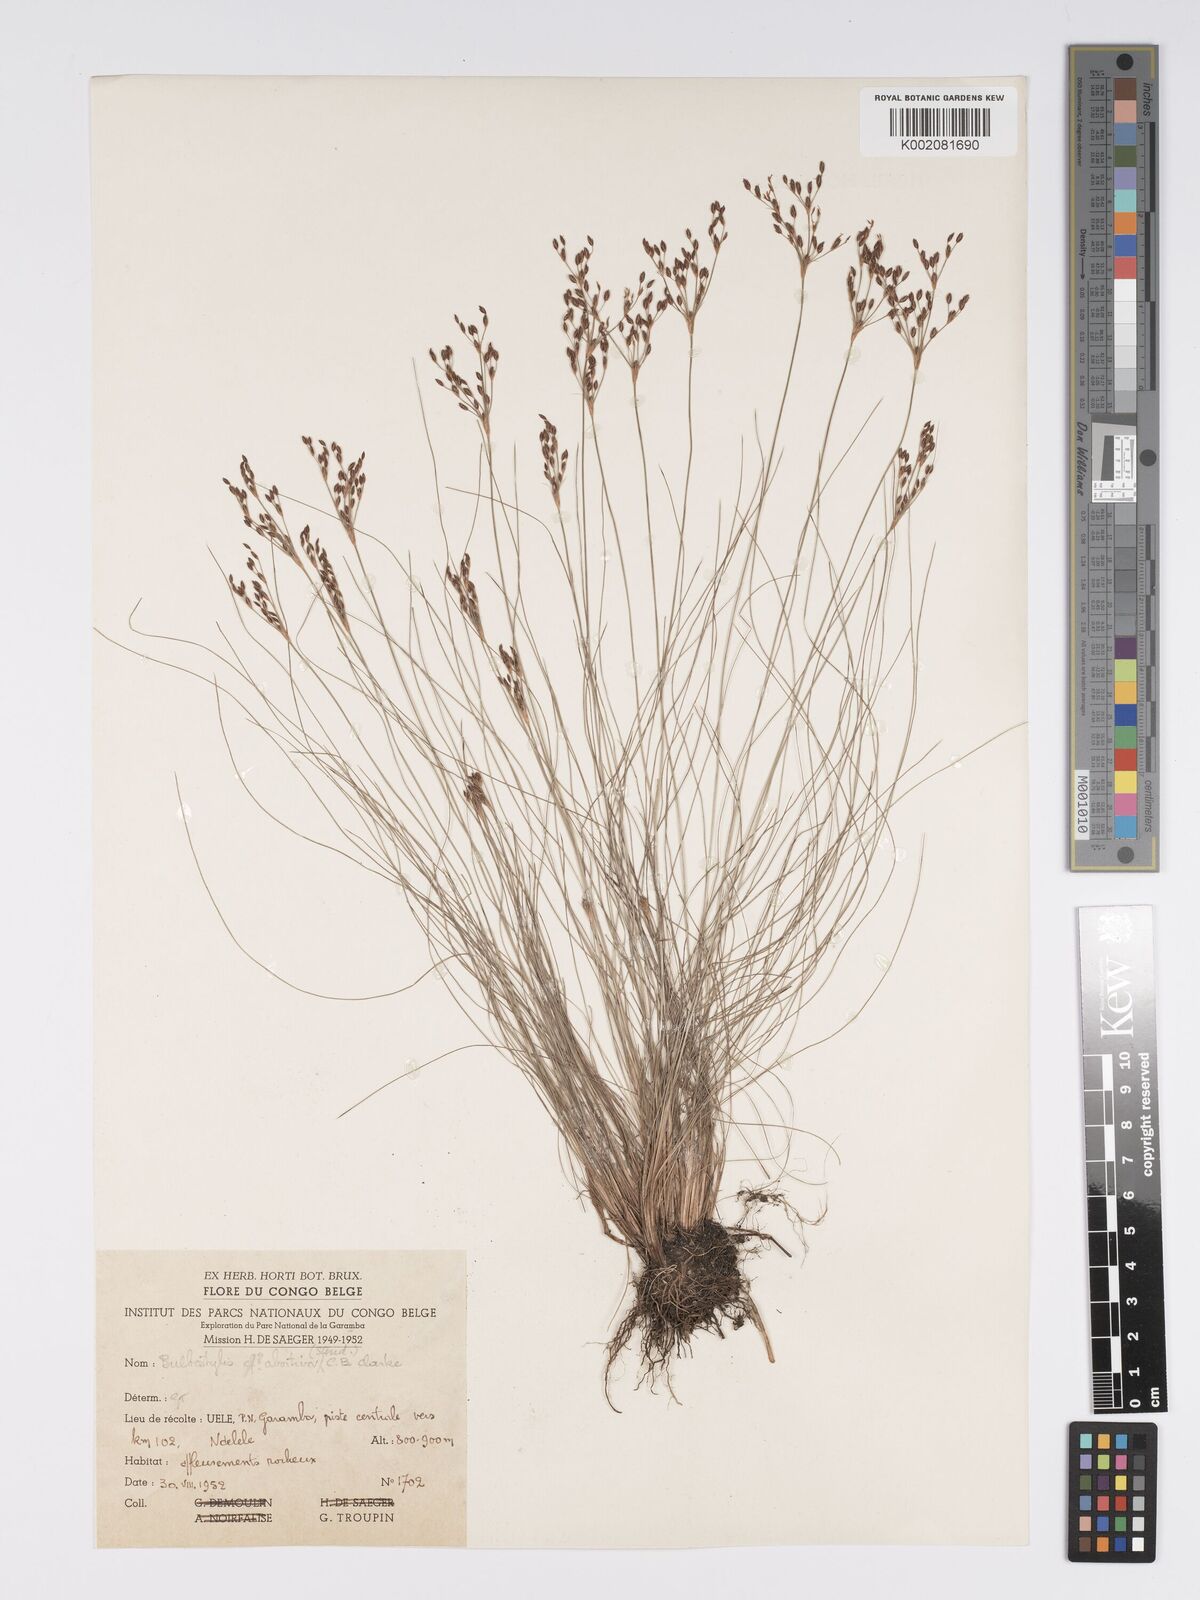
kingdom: Plantae
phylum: Tracheophyta
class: Liliopsida
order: Poales
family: Cyperaceae
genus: Bulbostylis
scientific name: Bulbostylis abortiva
